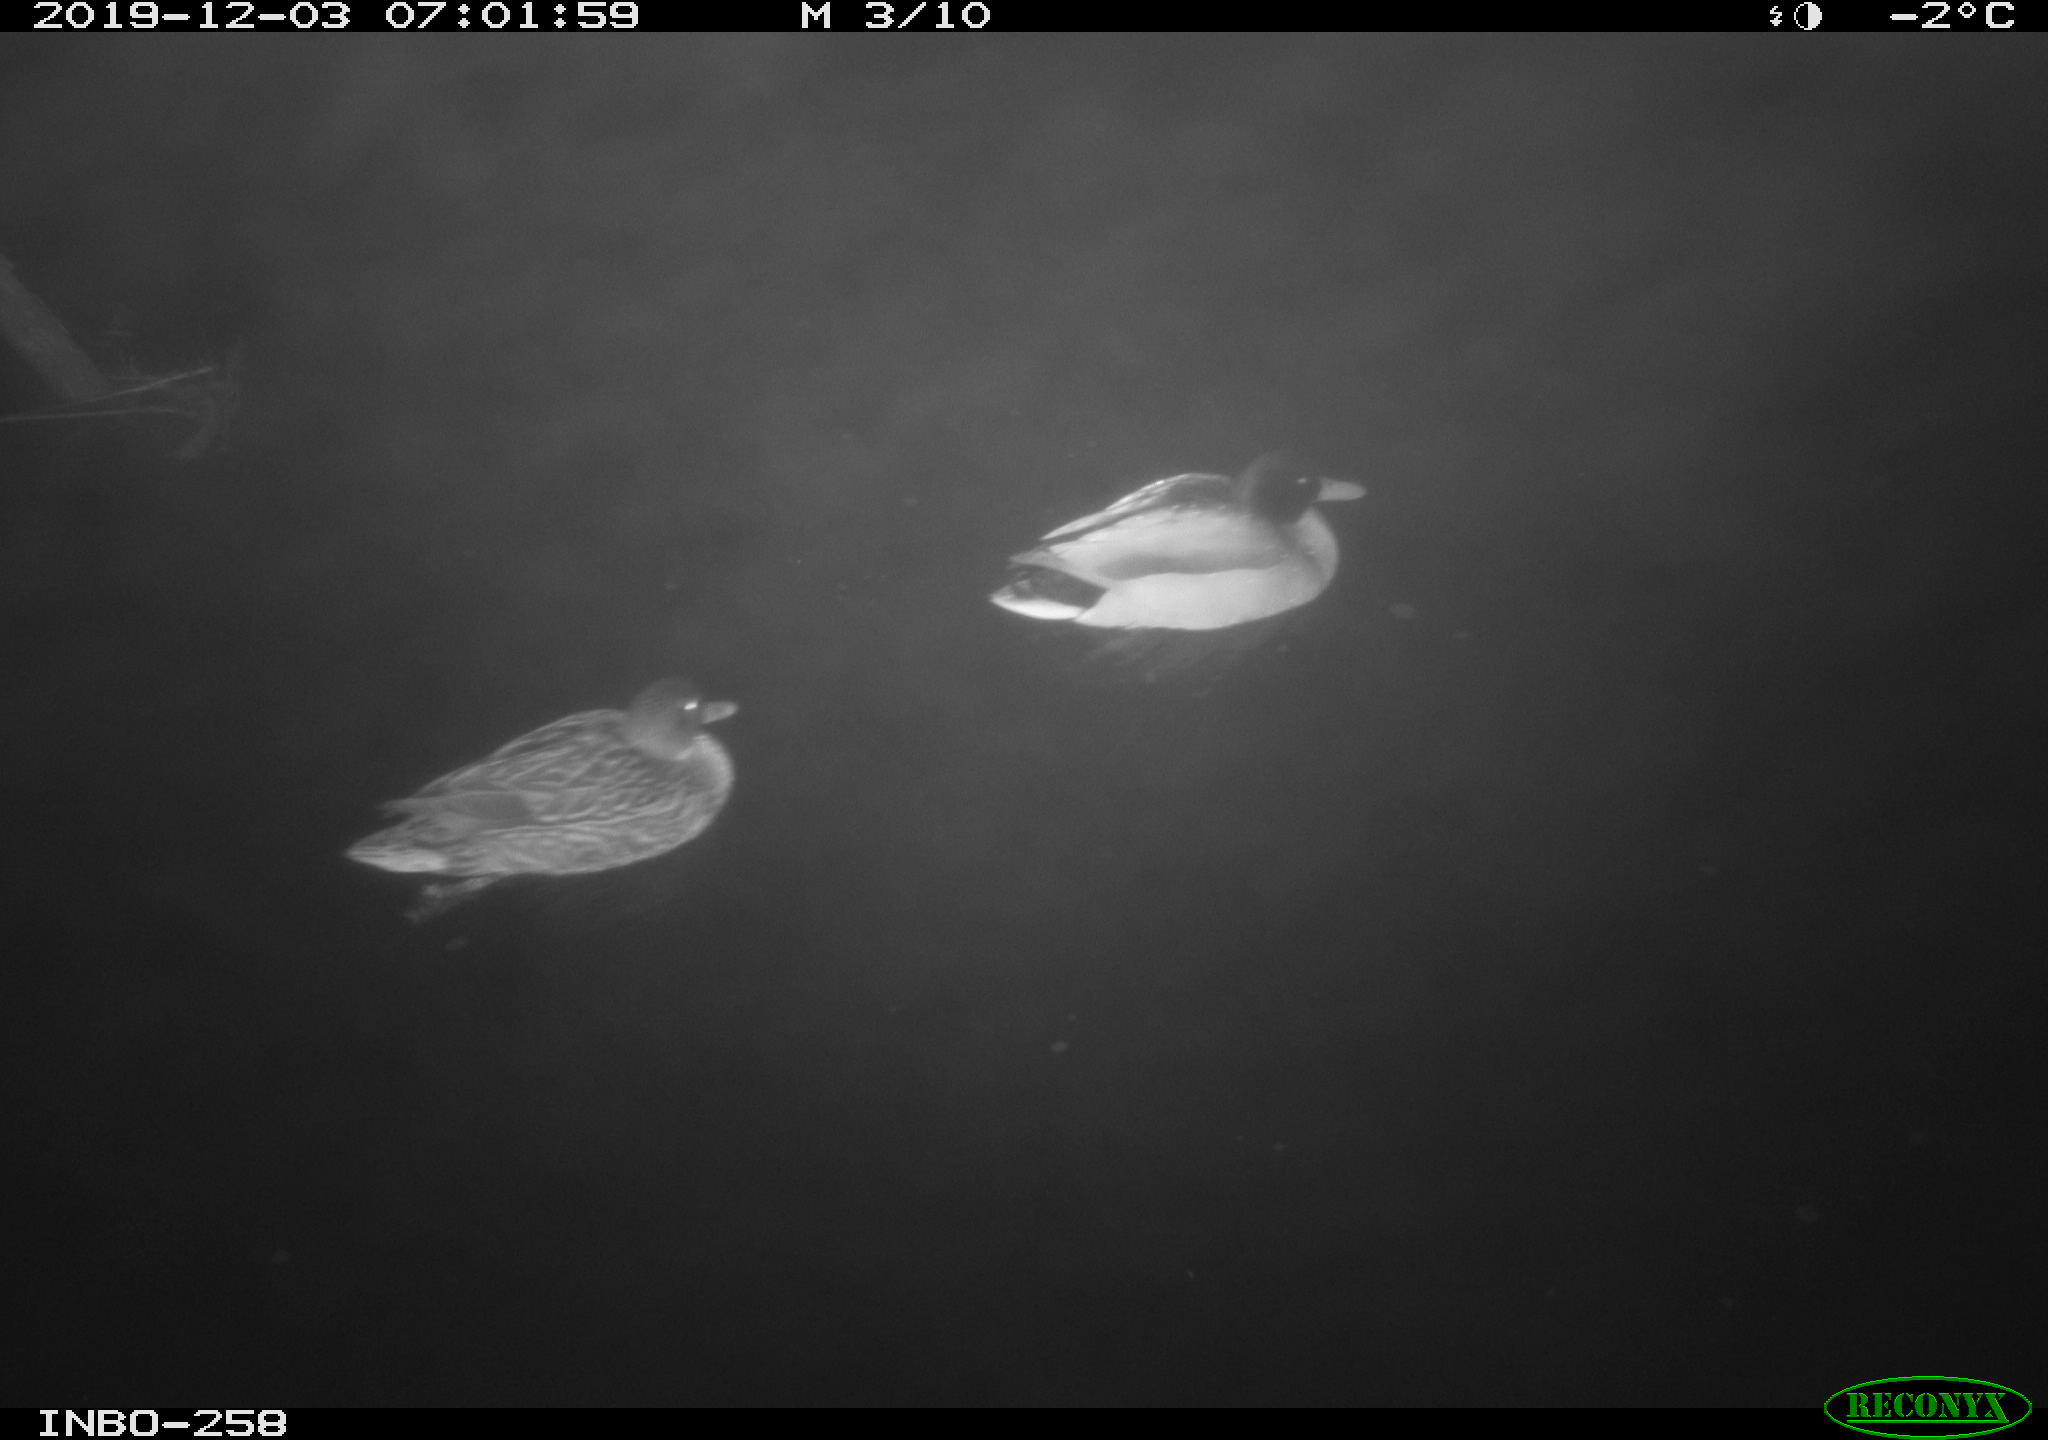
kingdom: Animalia
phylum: Chordata
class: Aves
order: Anseriformes
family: Anatidae
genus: Anas
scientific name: Anas platyrhynchos
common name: Mallard
